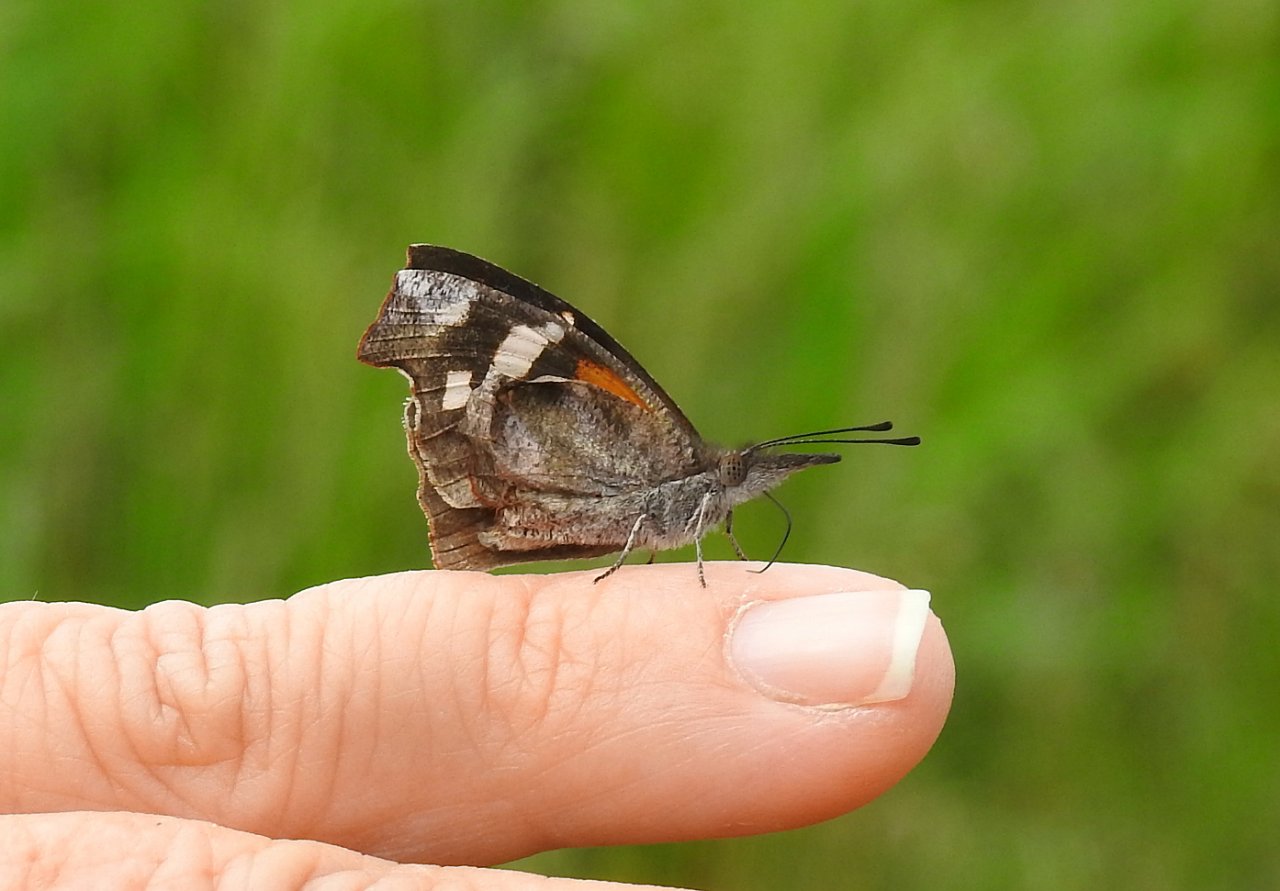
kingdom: Animalia
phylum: Arthropoda
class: Insecta
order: Lepidoptera
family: Nymphalidae
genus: Libytheana
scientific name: Libytheana carinenta
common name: American Snout
